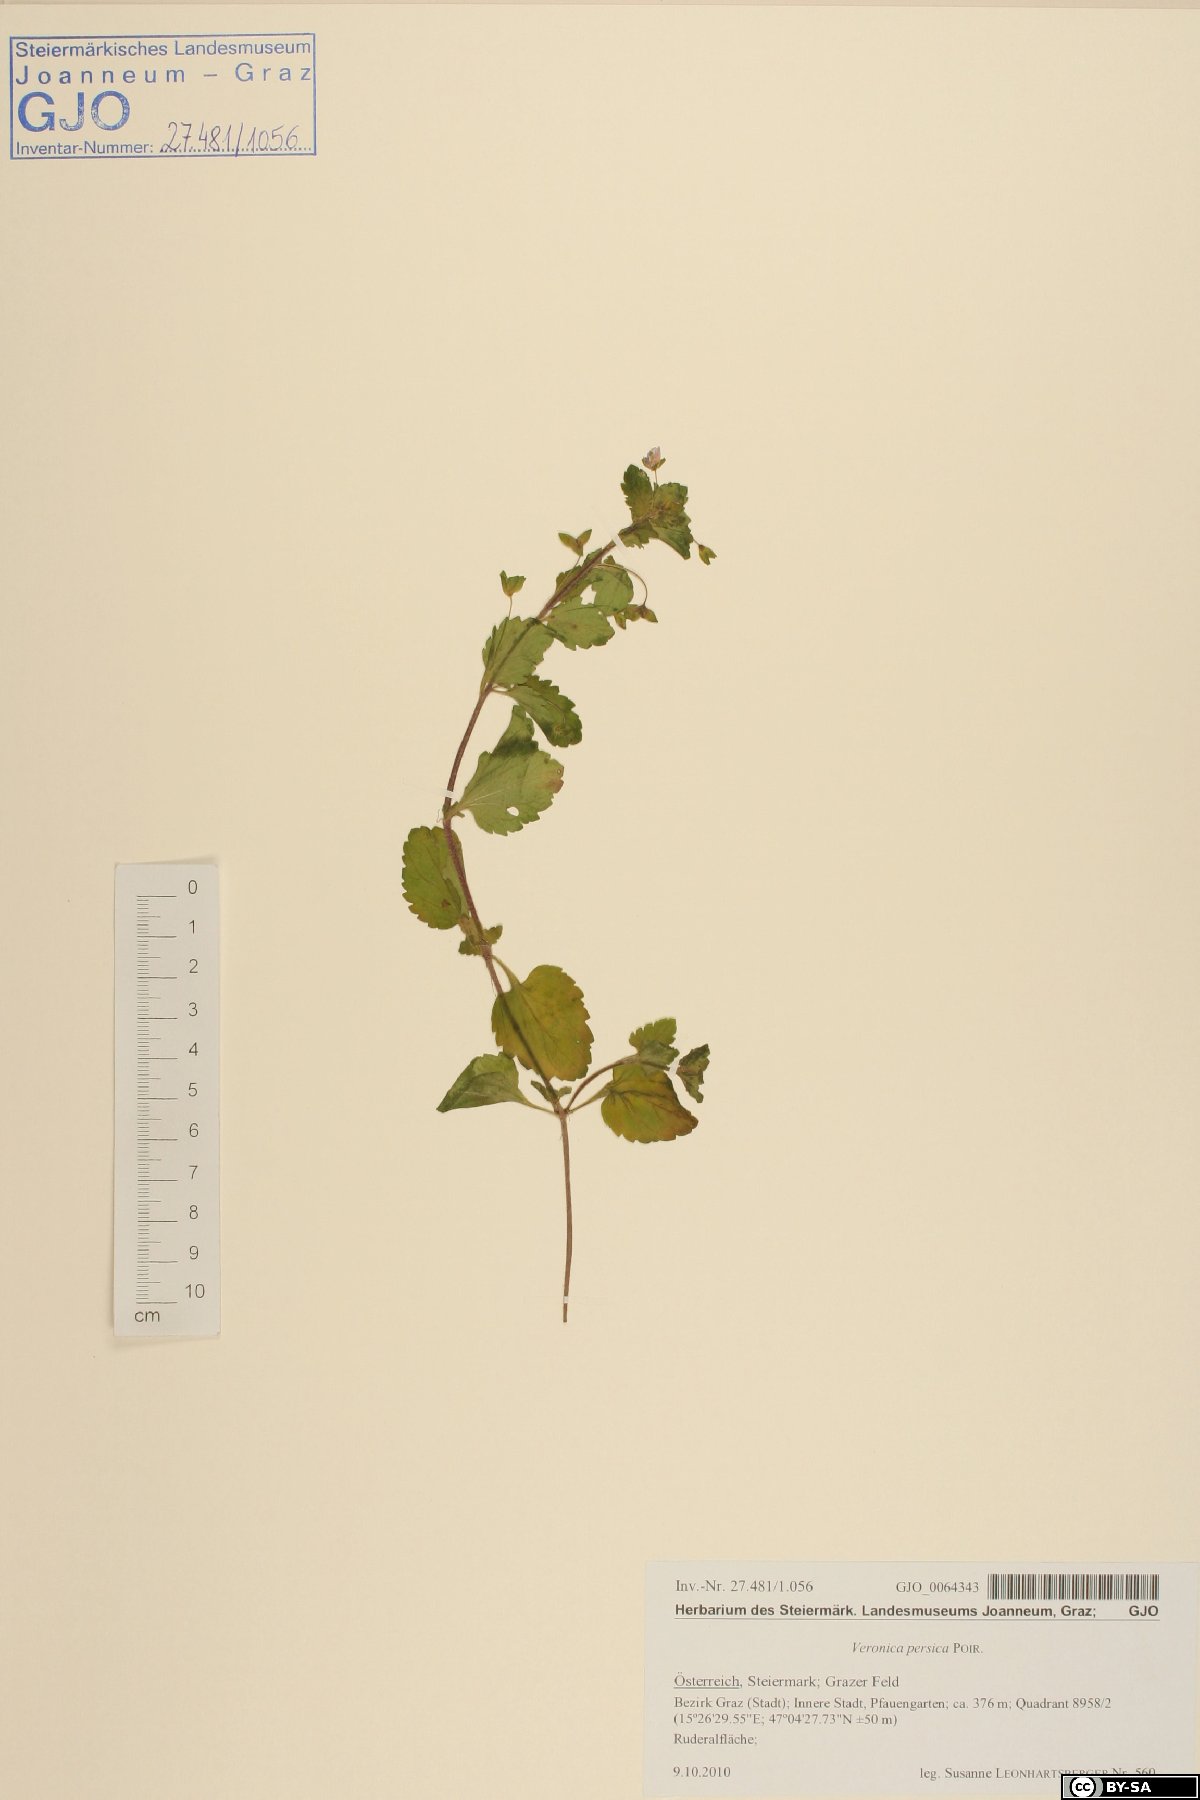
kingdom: Plantae
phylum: Tracheophyta
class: Magnoliopsida
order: Lamiales
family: Plantaginaceae
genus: Veronica
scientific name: Veronica persica
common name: Common field-speedwell
